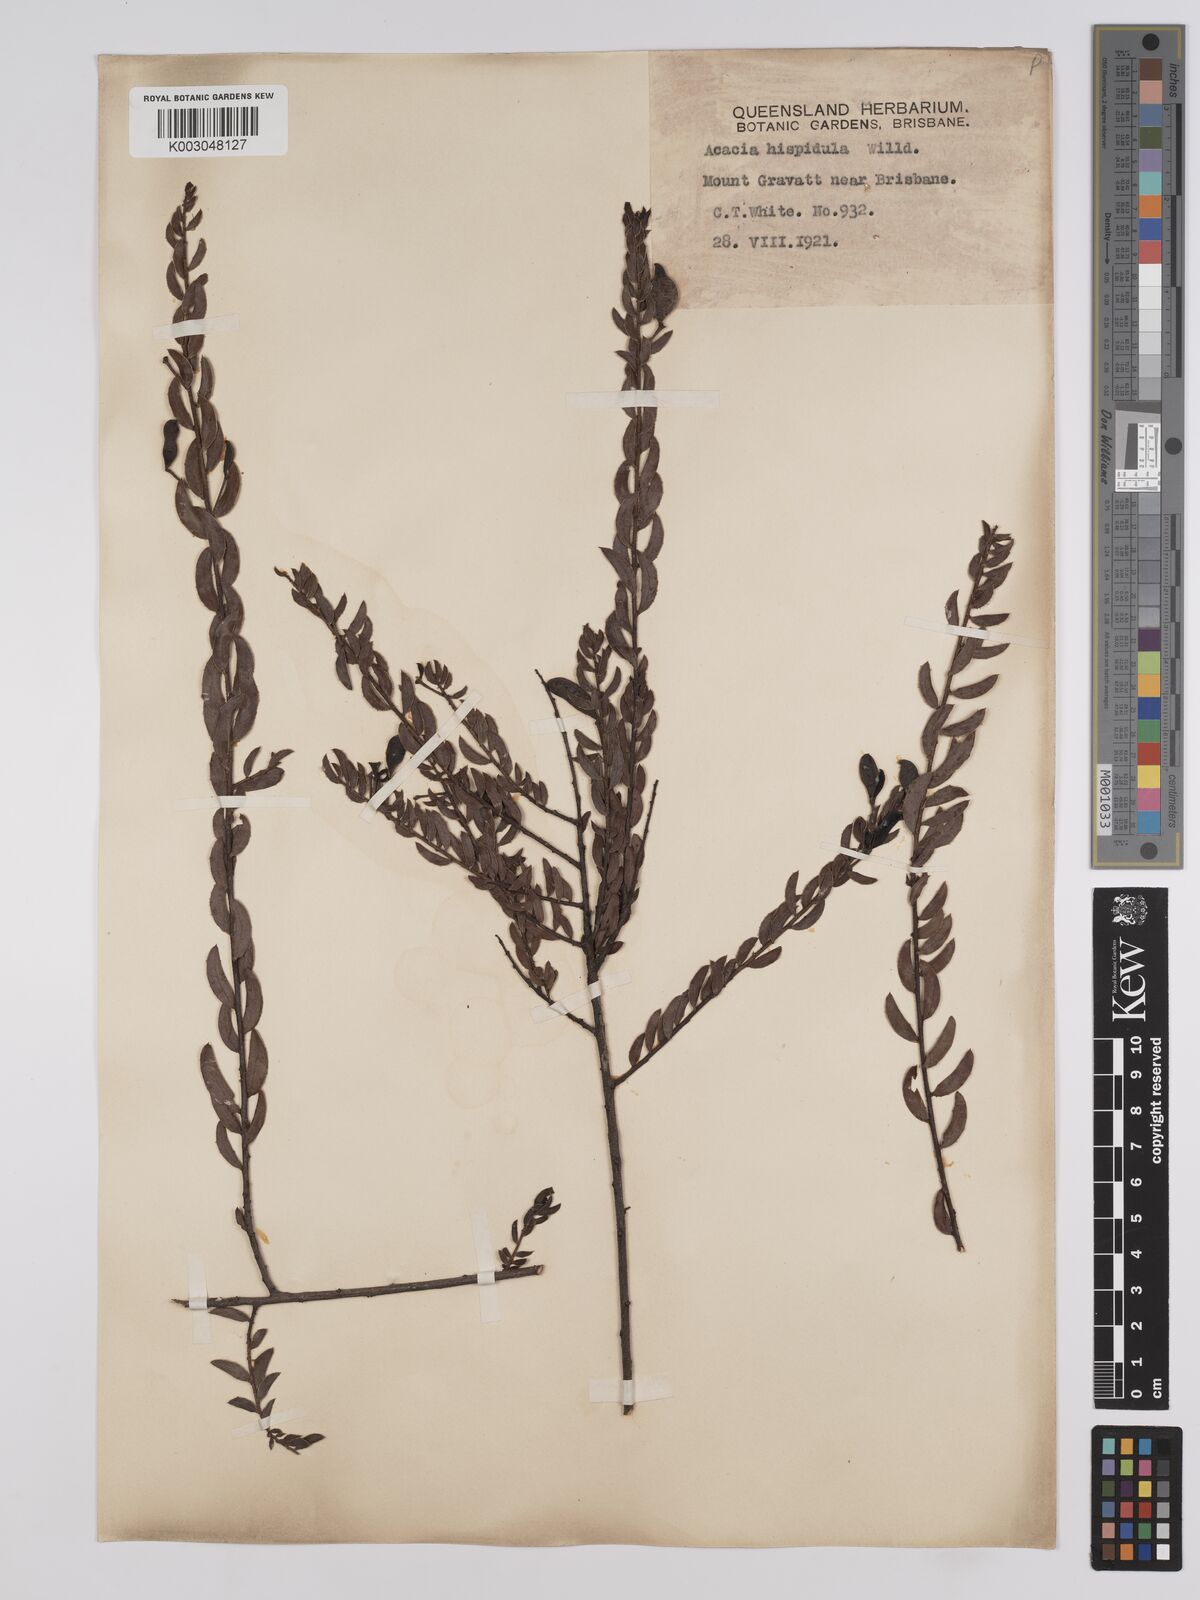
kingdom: Plantae
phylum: Tracheophyta
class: Magnoliopsida
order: Fabales
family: Fabaceae
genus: Acacia
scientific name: Acacia hispidula
